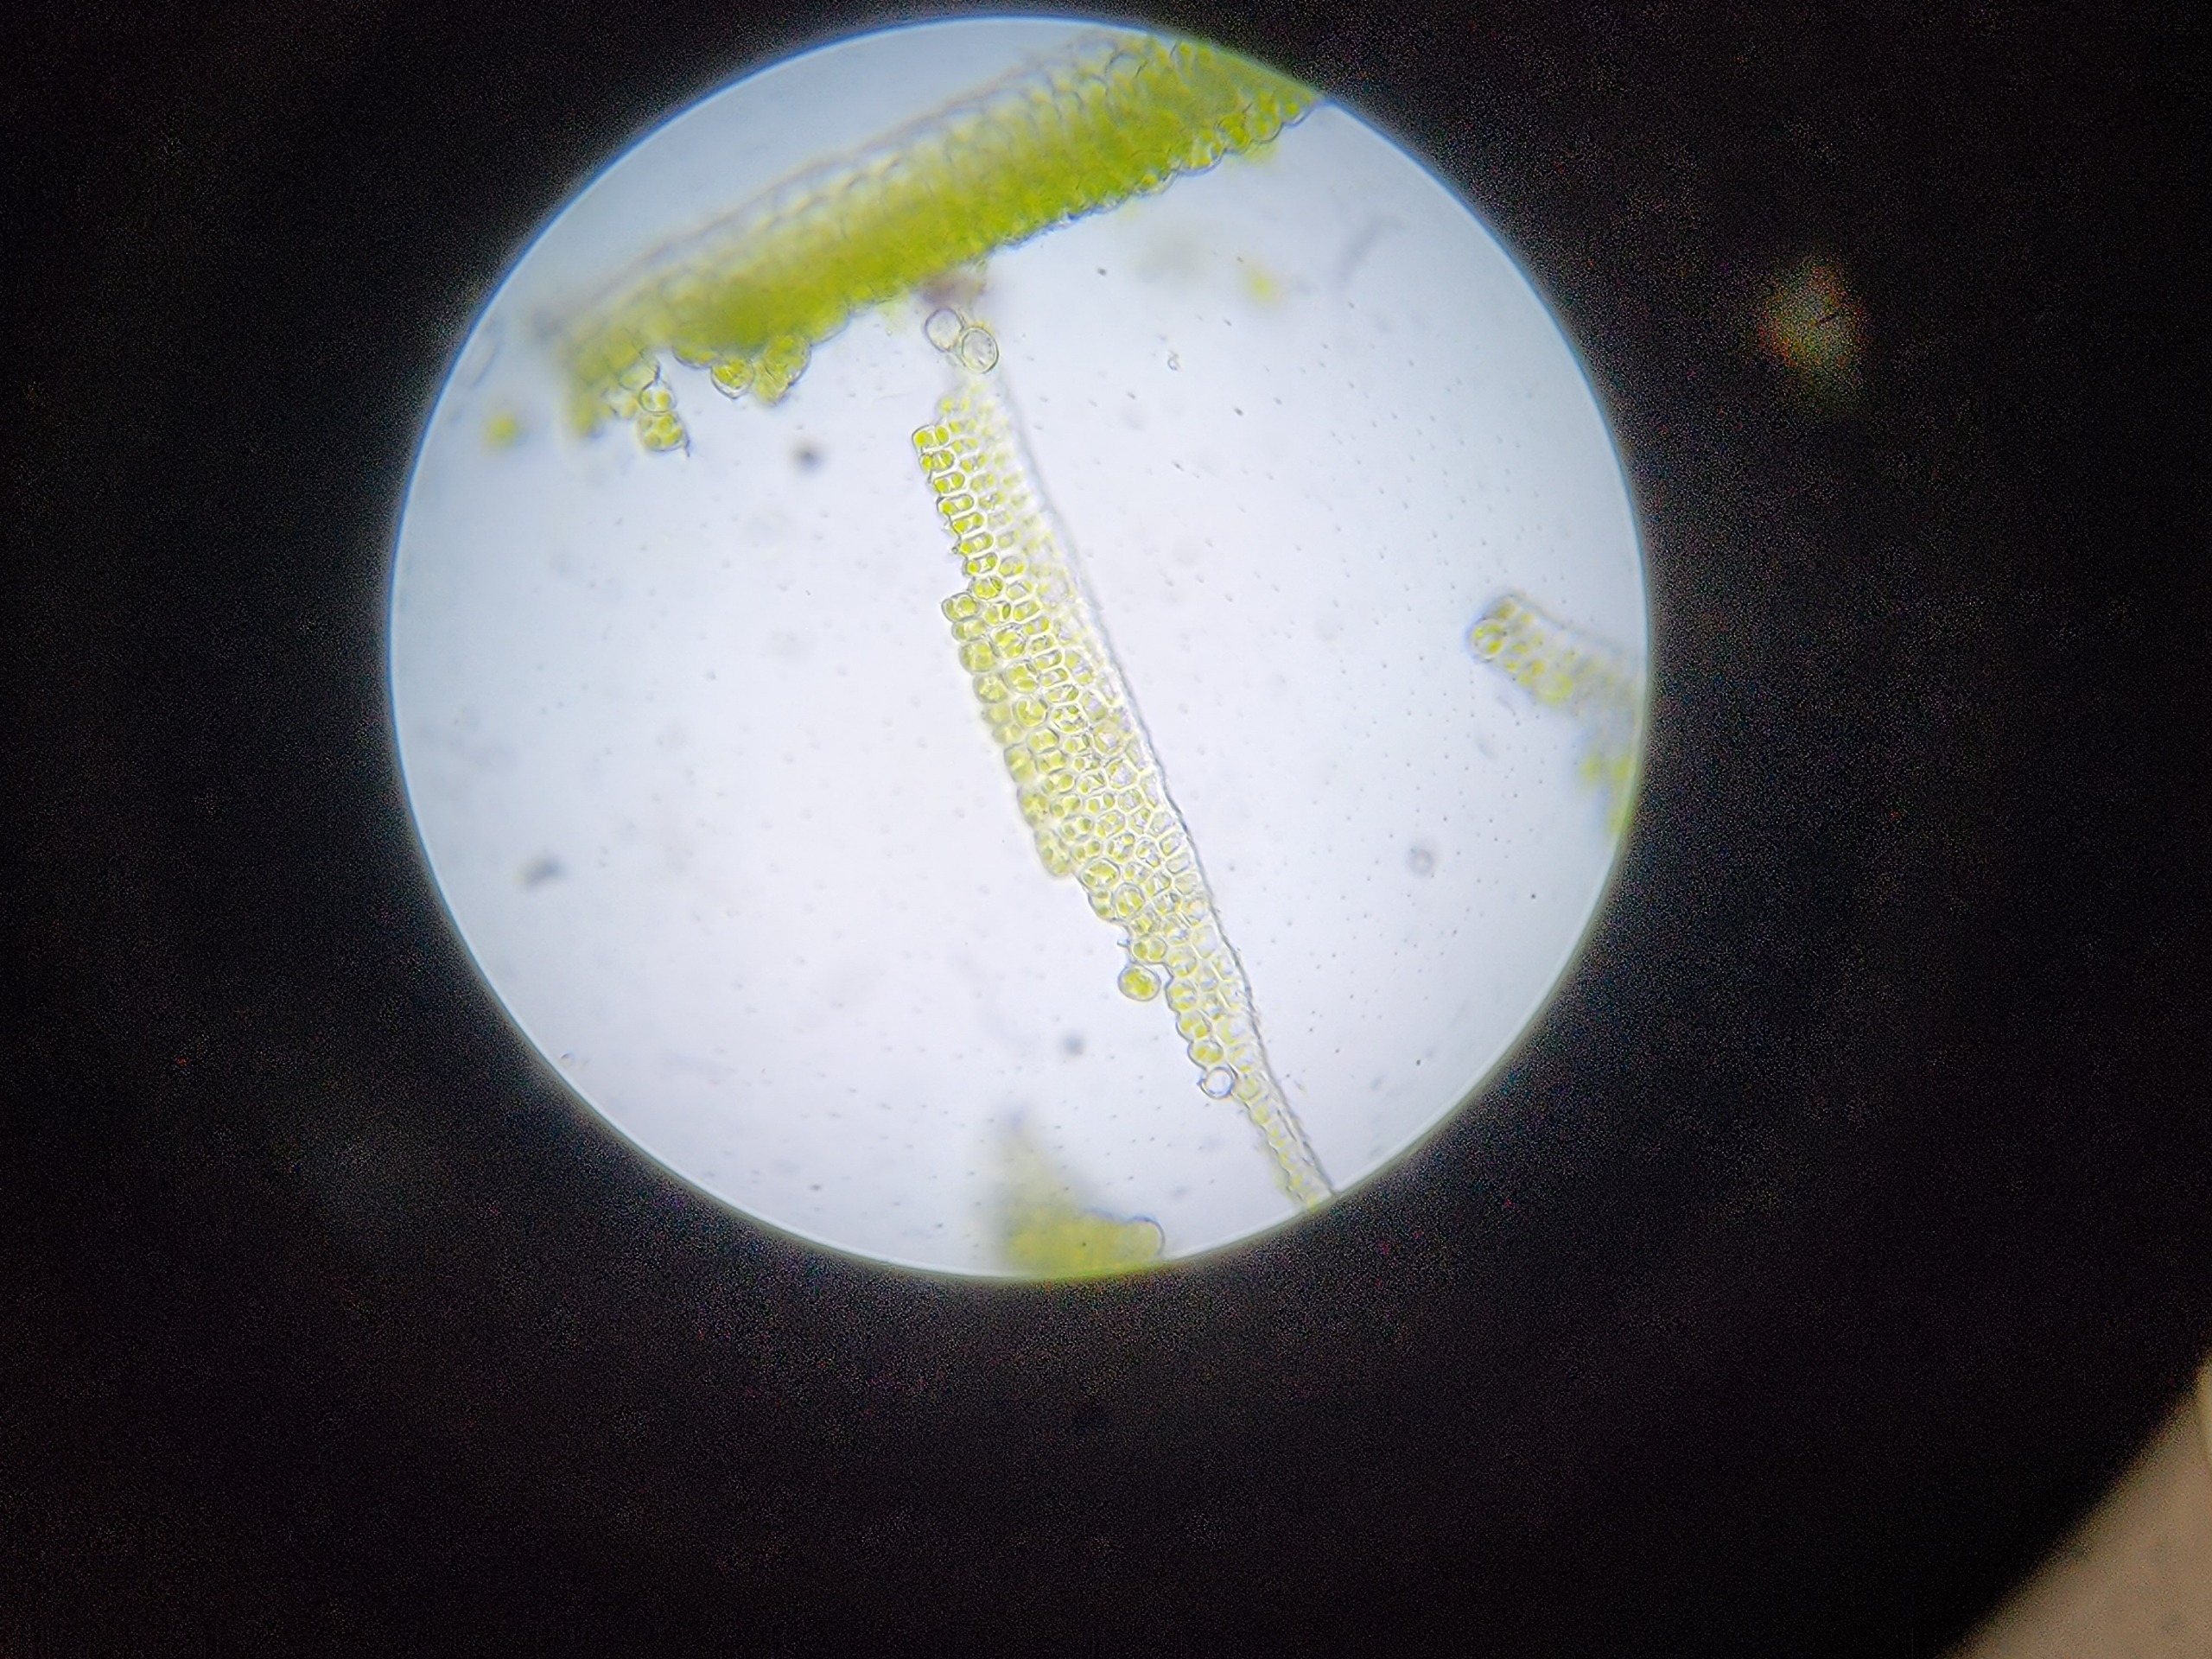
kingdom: Plantae
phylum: Bryophyta
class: Polytrichopsida
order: Polytrichales
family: Polytrichaceae
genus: Polytrichum
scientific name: Polytrichum formosum
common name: Skov-jomfruhår
